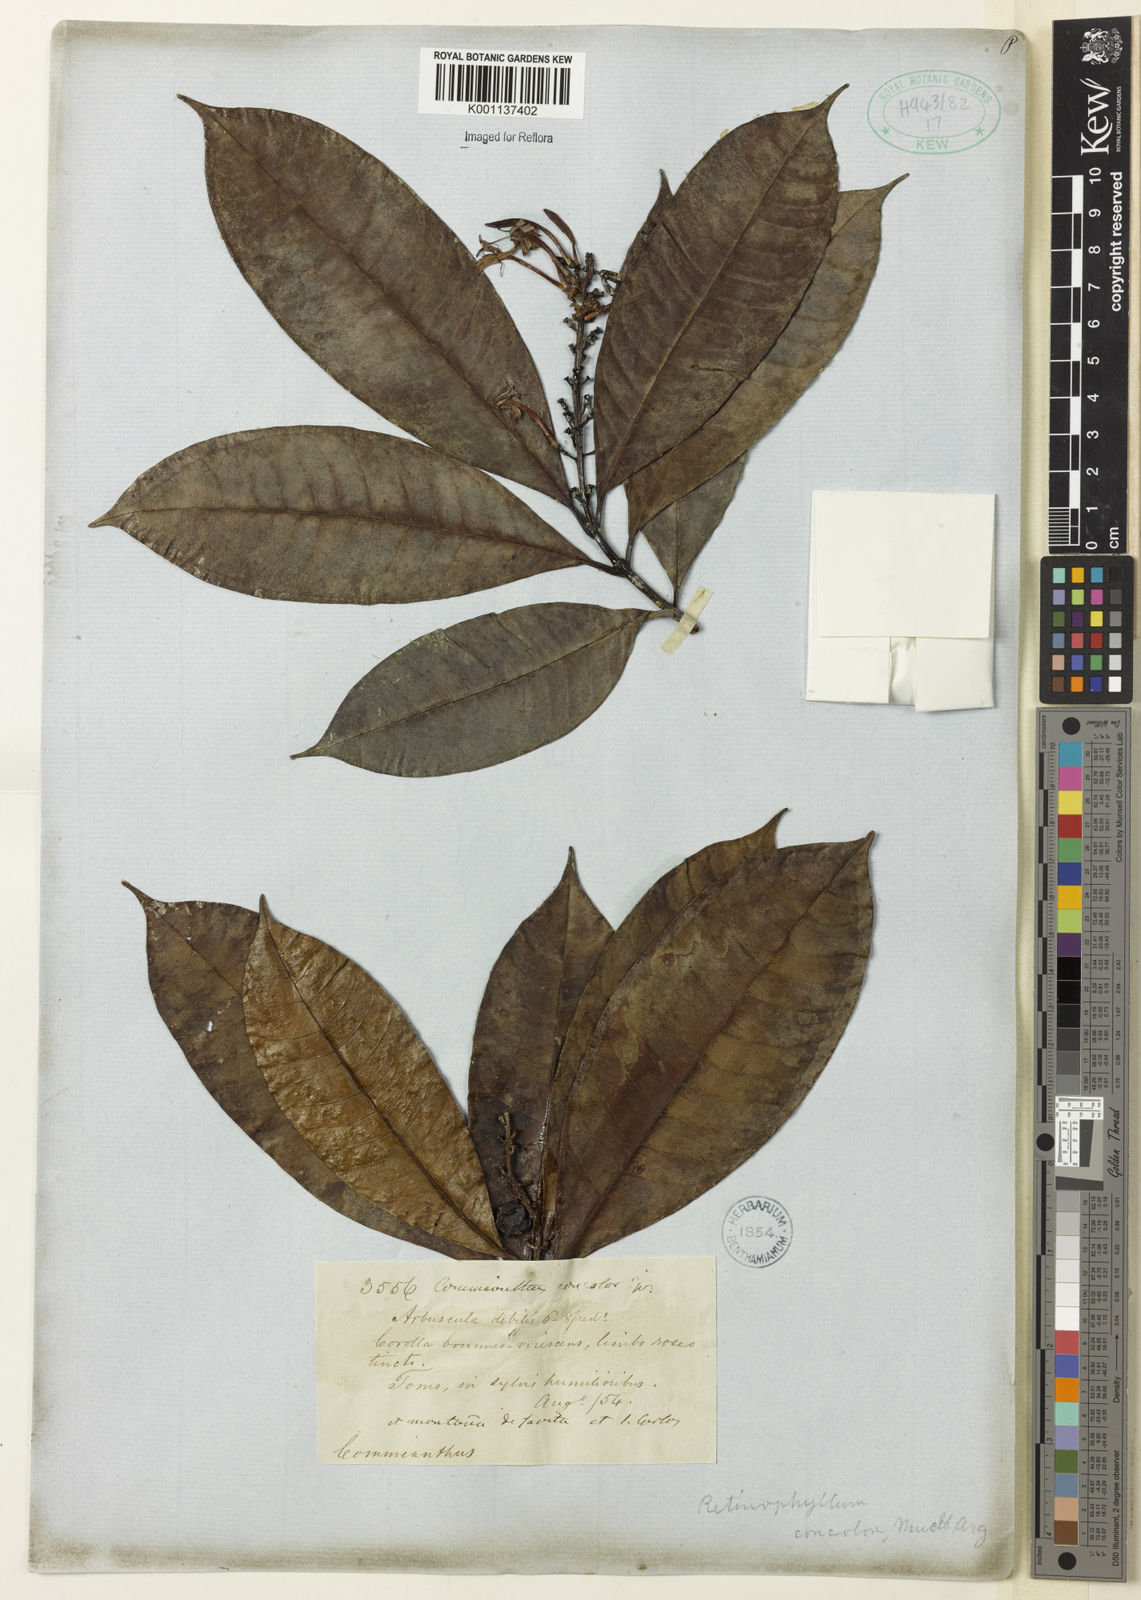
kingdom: Plantae
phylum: Tracheophyta
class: Magnoliopsida
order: Gentianales
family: Rubiaceae
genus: Retiniphyllum
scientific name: Retiniphyllum
